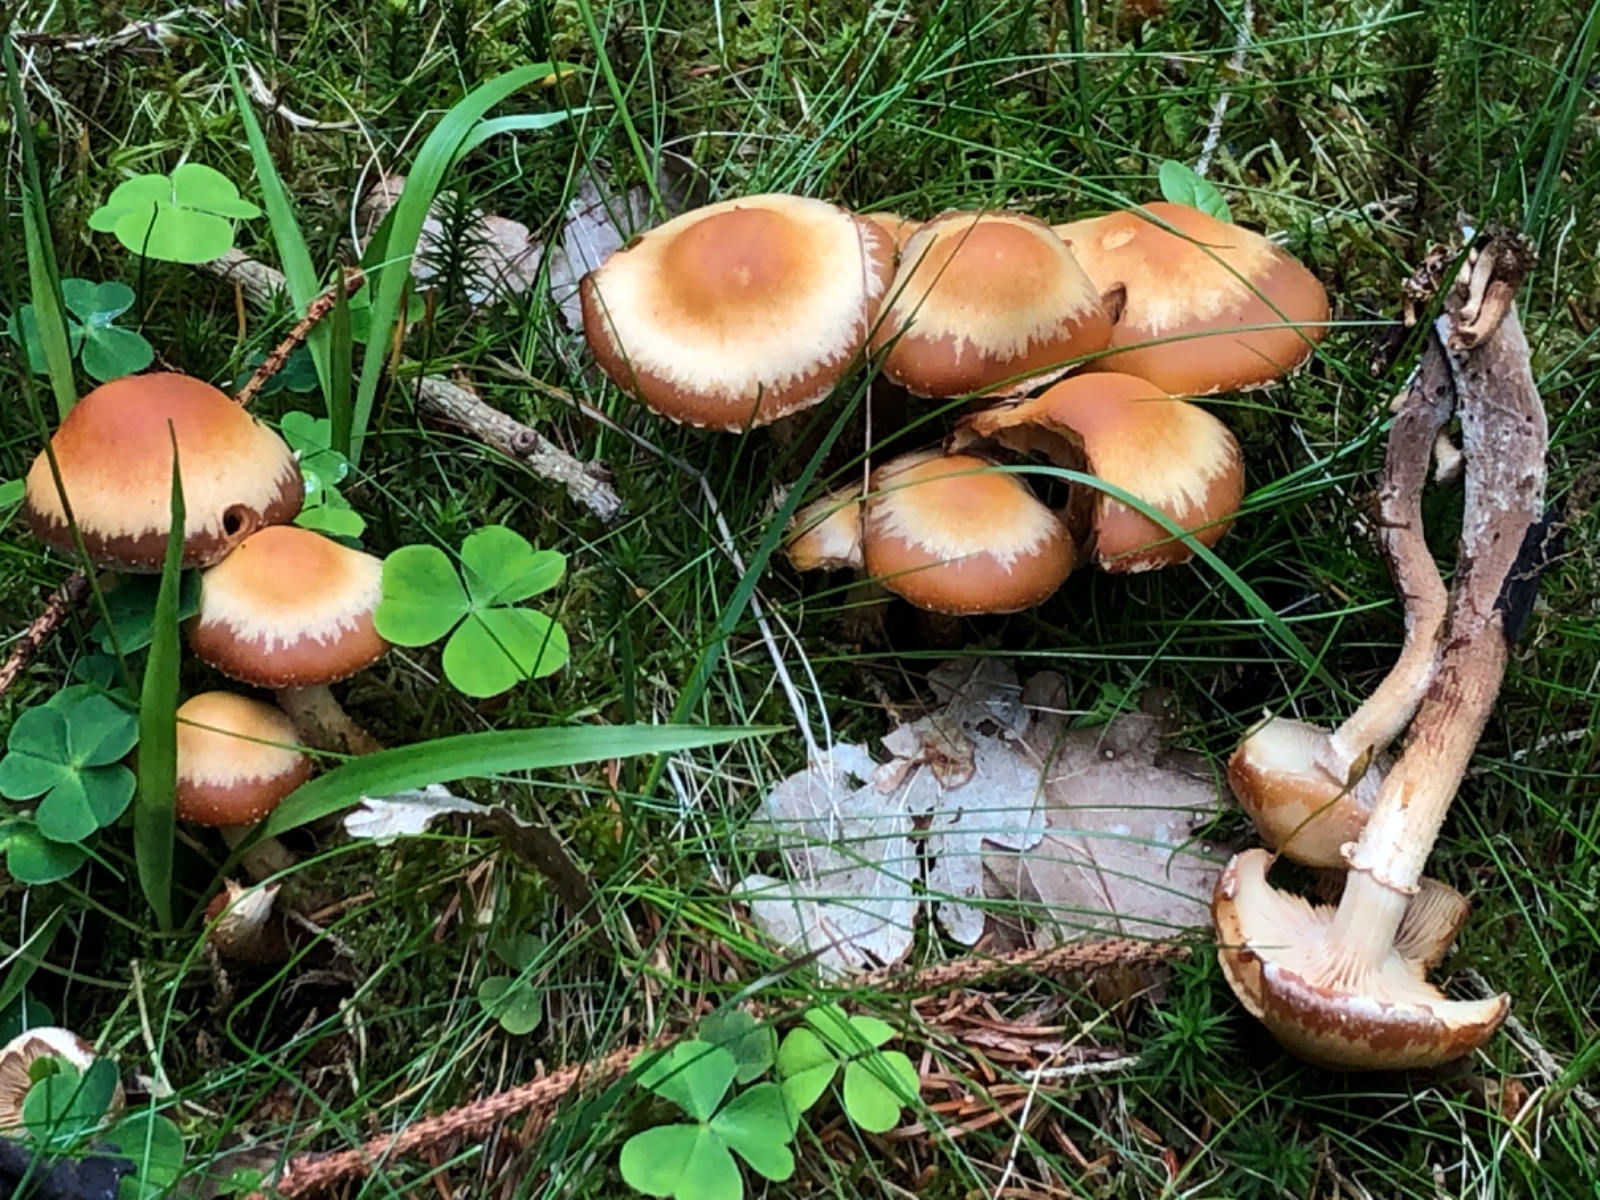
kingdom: Fungi
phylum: Basidiomycota
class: Agaricomycetes
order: Agaricales
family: Strophariaceae
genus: Kuehneromyces
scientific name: Kuehneromyces mutabilis
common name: foranderlig skælhat
